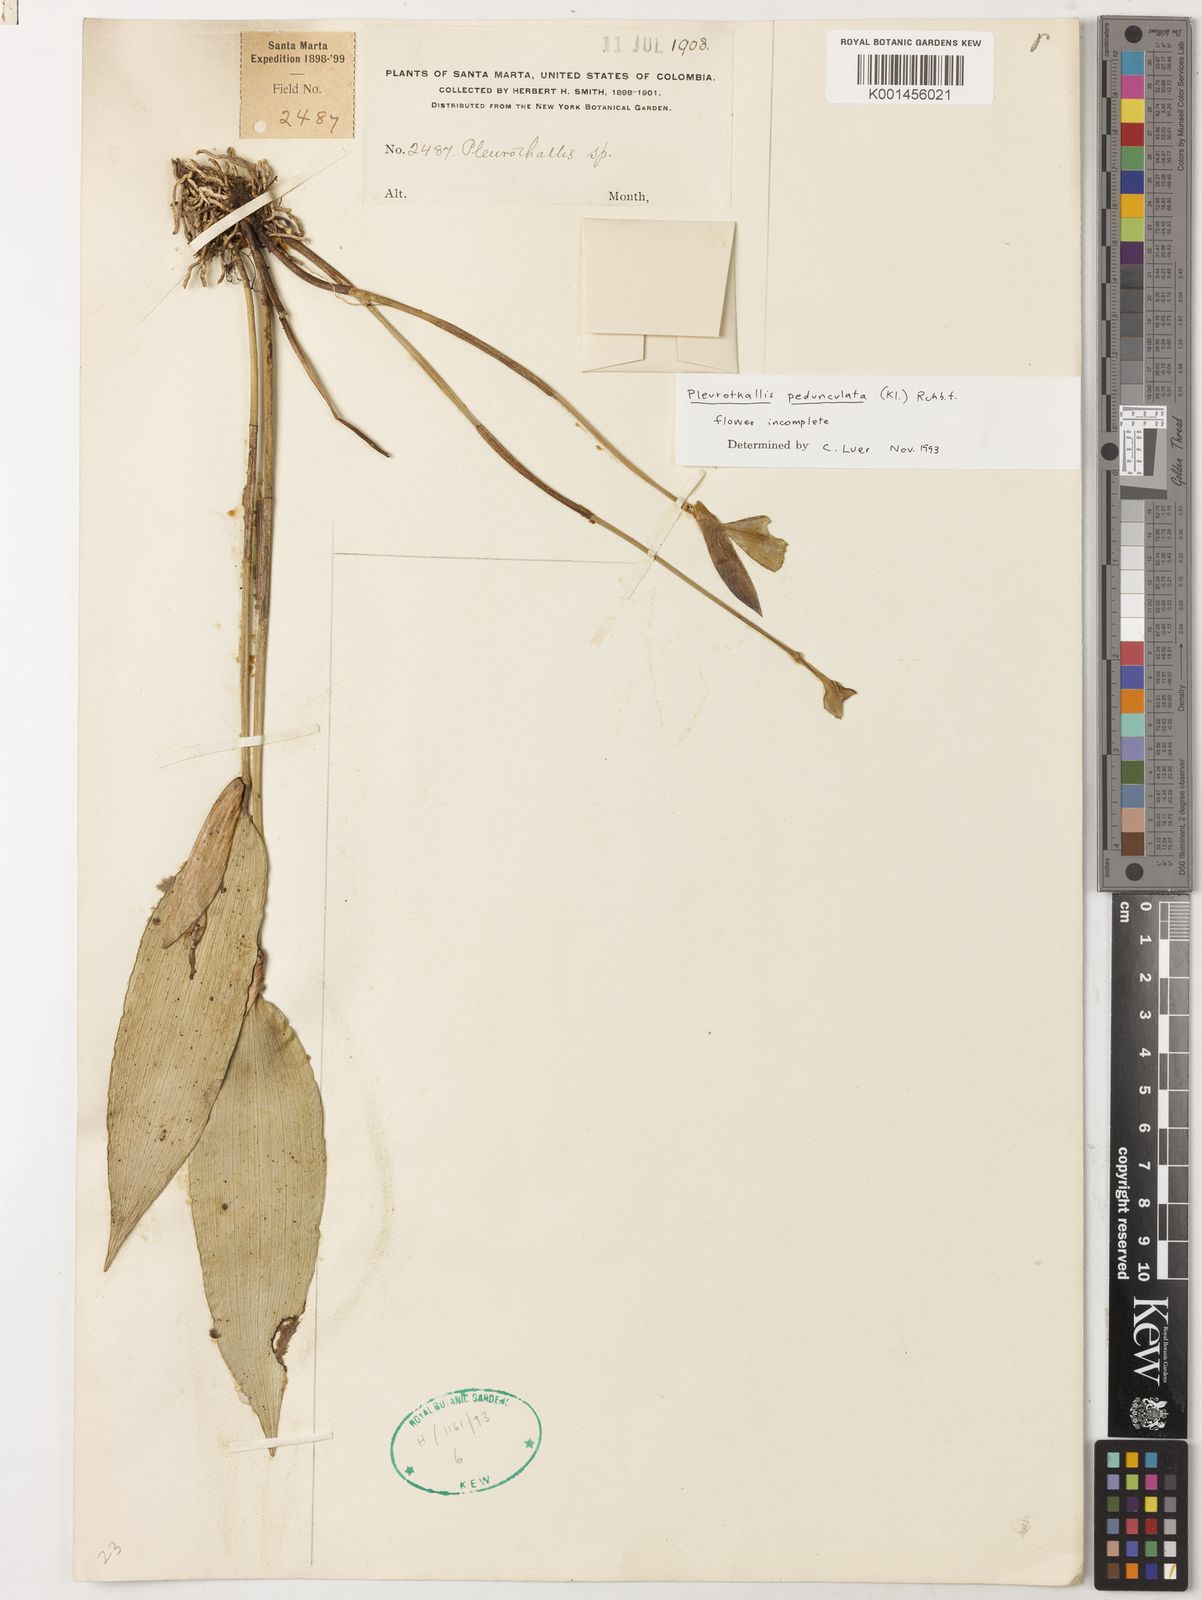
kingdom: Plantae
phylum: Tracheophyta
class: Liliopsida
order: Asparagales
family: Orchidaceae
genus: Pleurothallis
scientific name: Pleurothallis pedunculata
